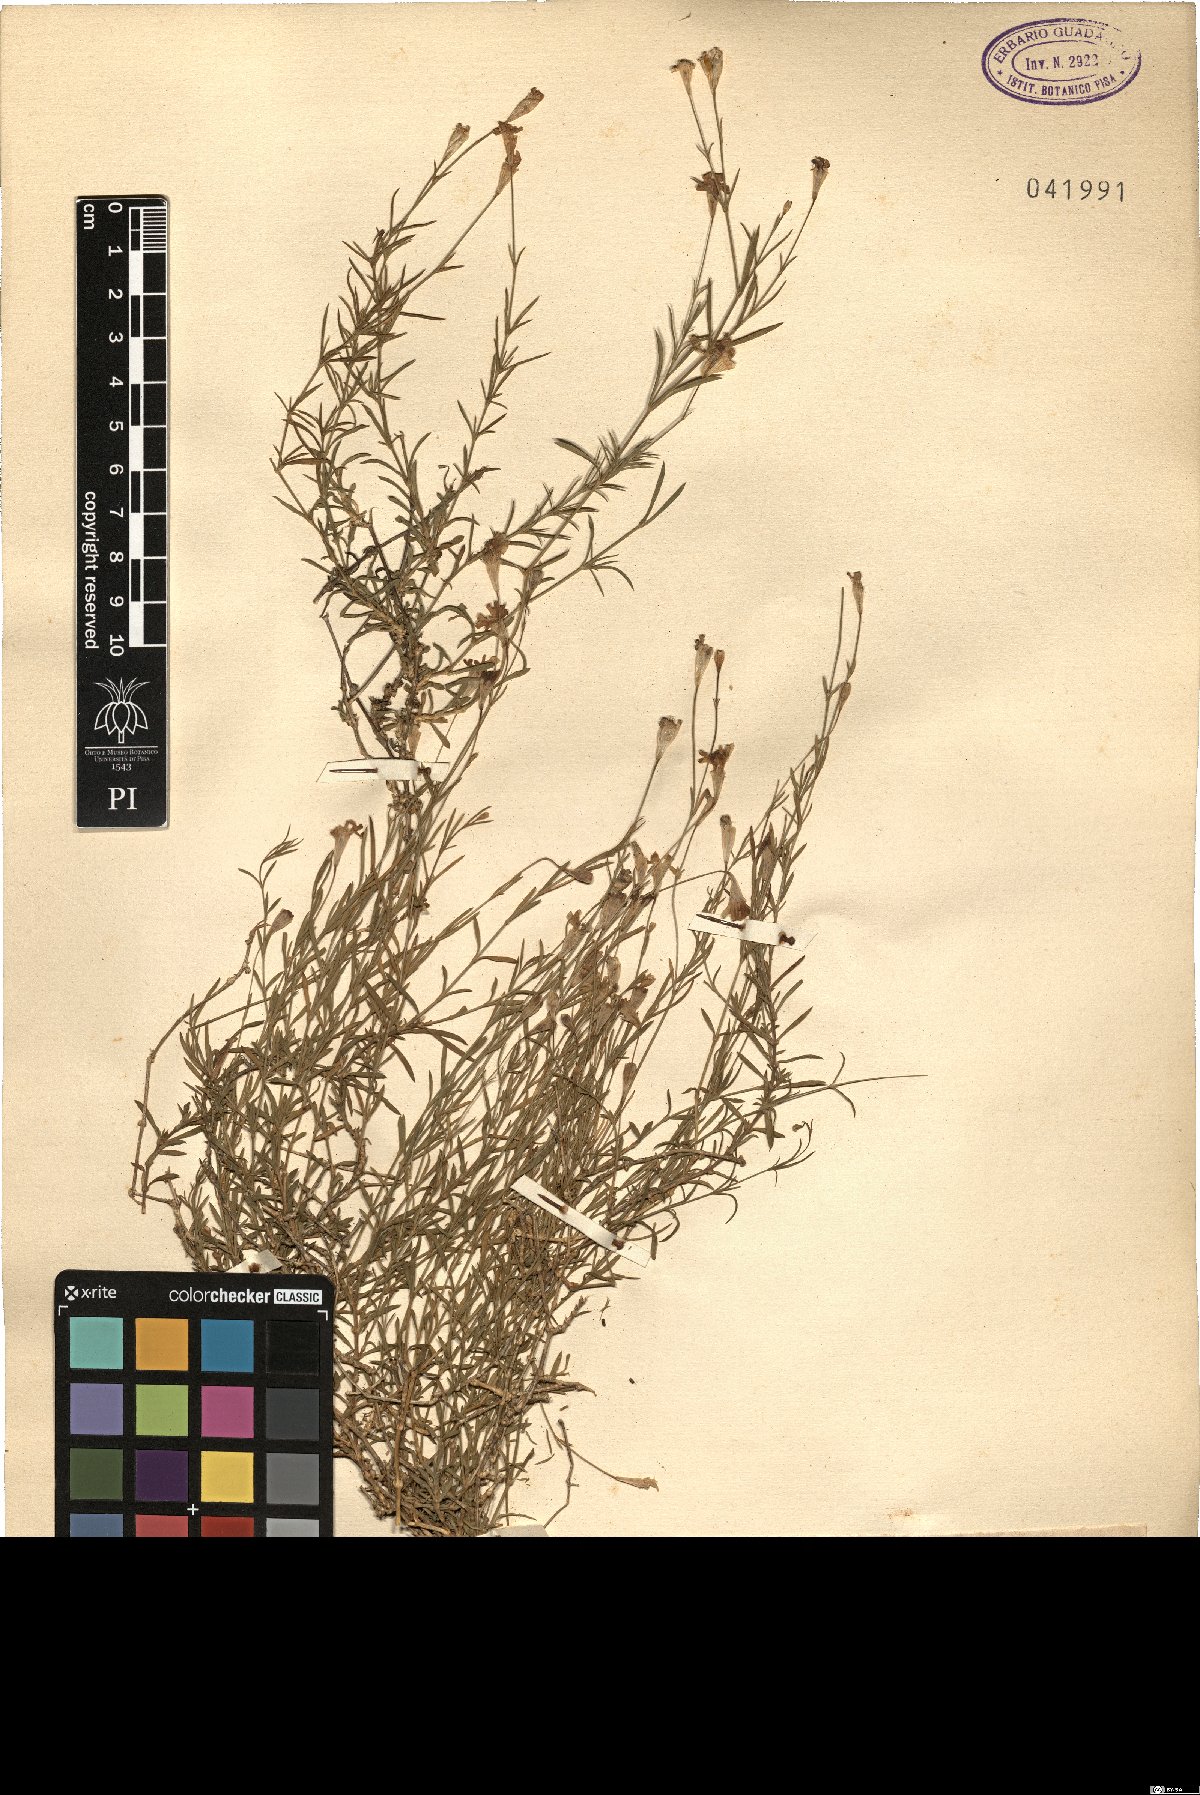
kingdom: Plantae
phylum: Tracheophyta
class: Magnoliopsida
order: Caryophyllales
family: Caryophyllaceae
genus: Silene
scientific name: Silene saxifraga
